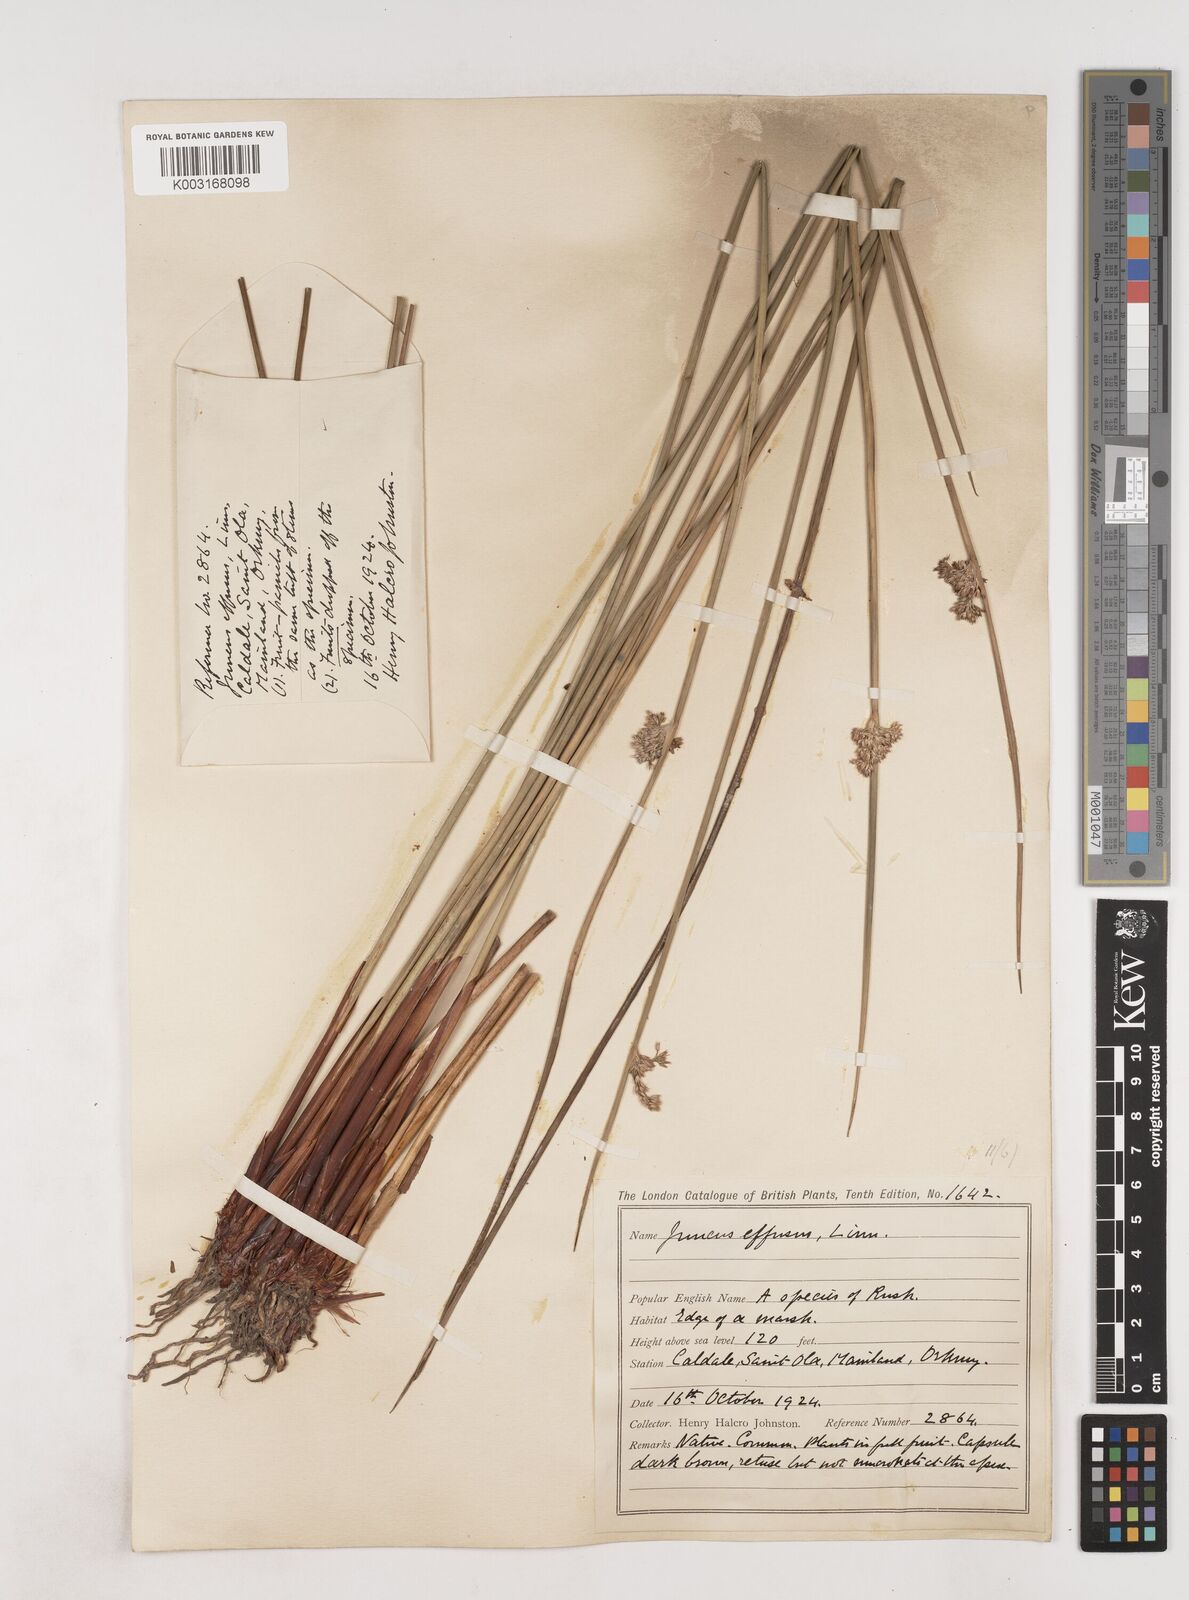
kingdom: Plantae
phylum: Tracheophyta
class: Liliopsida
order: Poales
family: Juncaceae
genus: Juncus
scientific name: Juncus conglomeratus
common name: Compact rush
